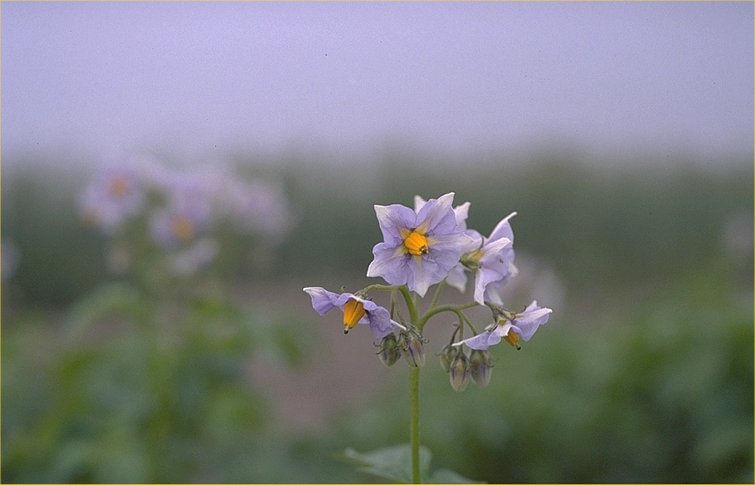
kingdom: Plantae
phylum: Tracheophyta
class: Magnoliopsida
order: Solanales
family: Solanaceae
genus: Solanum
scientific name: Solanum tuberosum
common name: Potato
